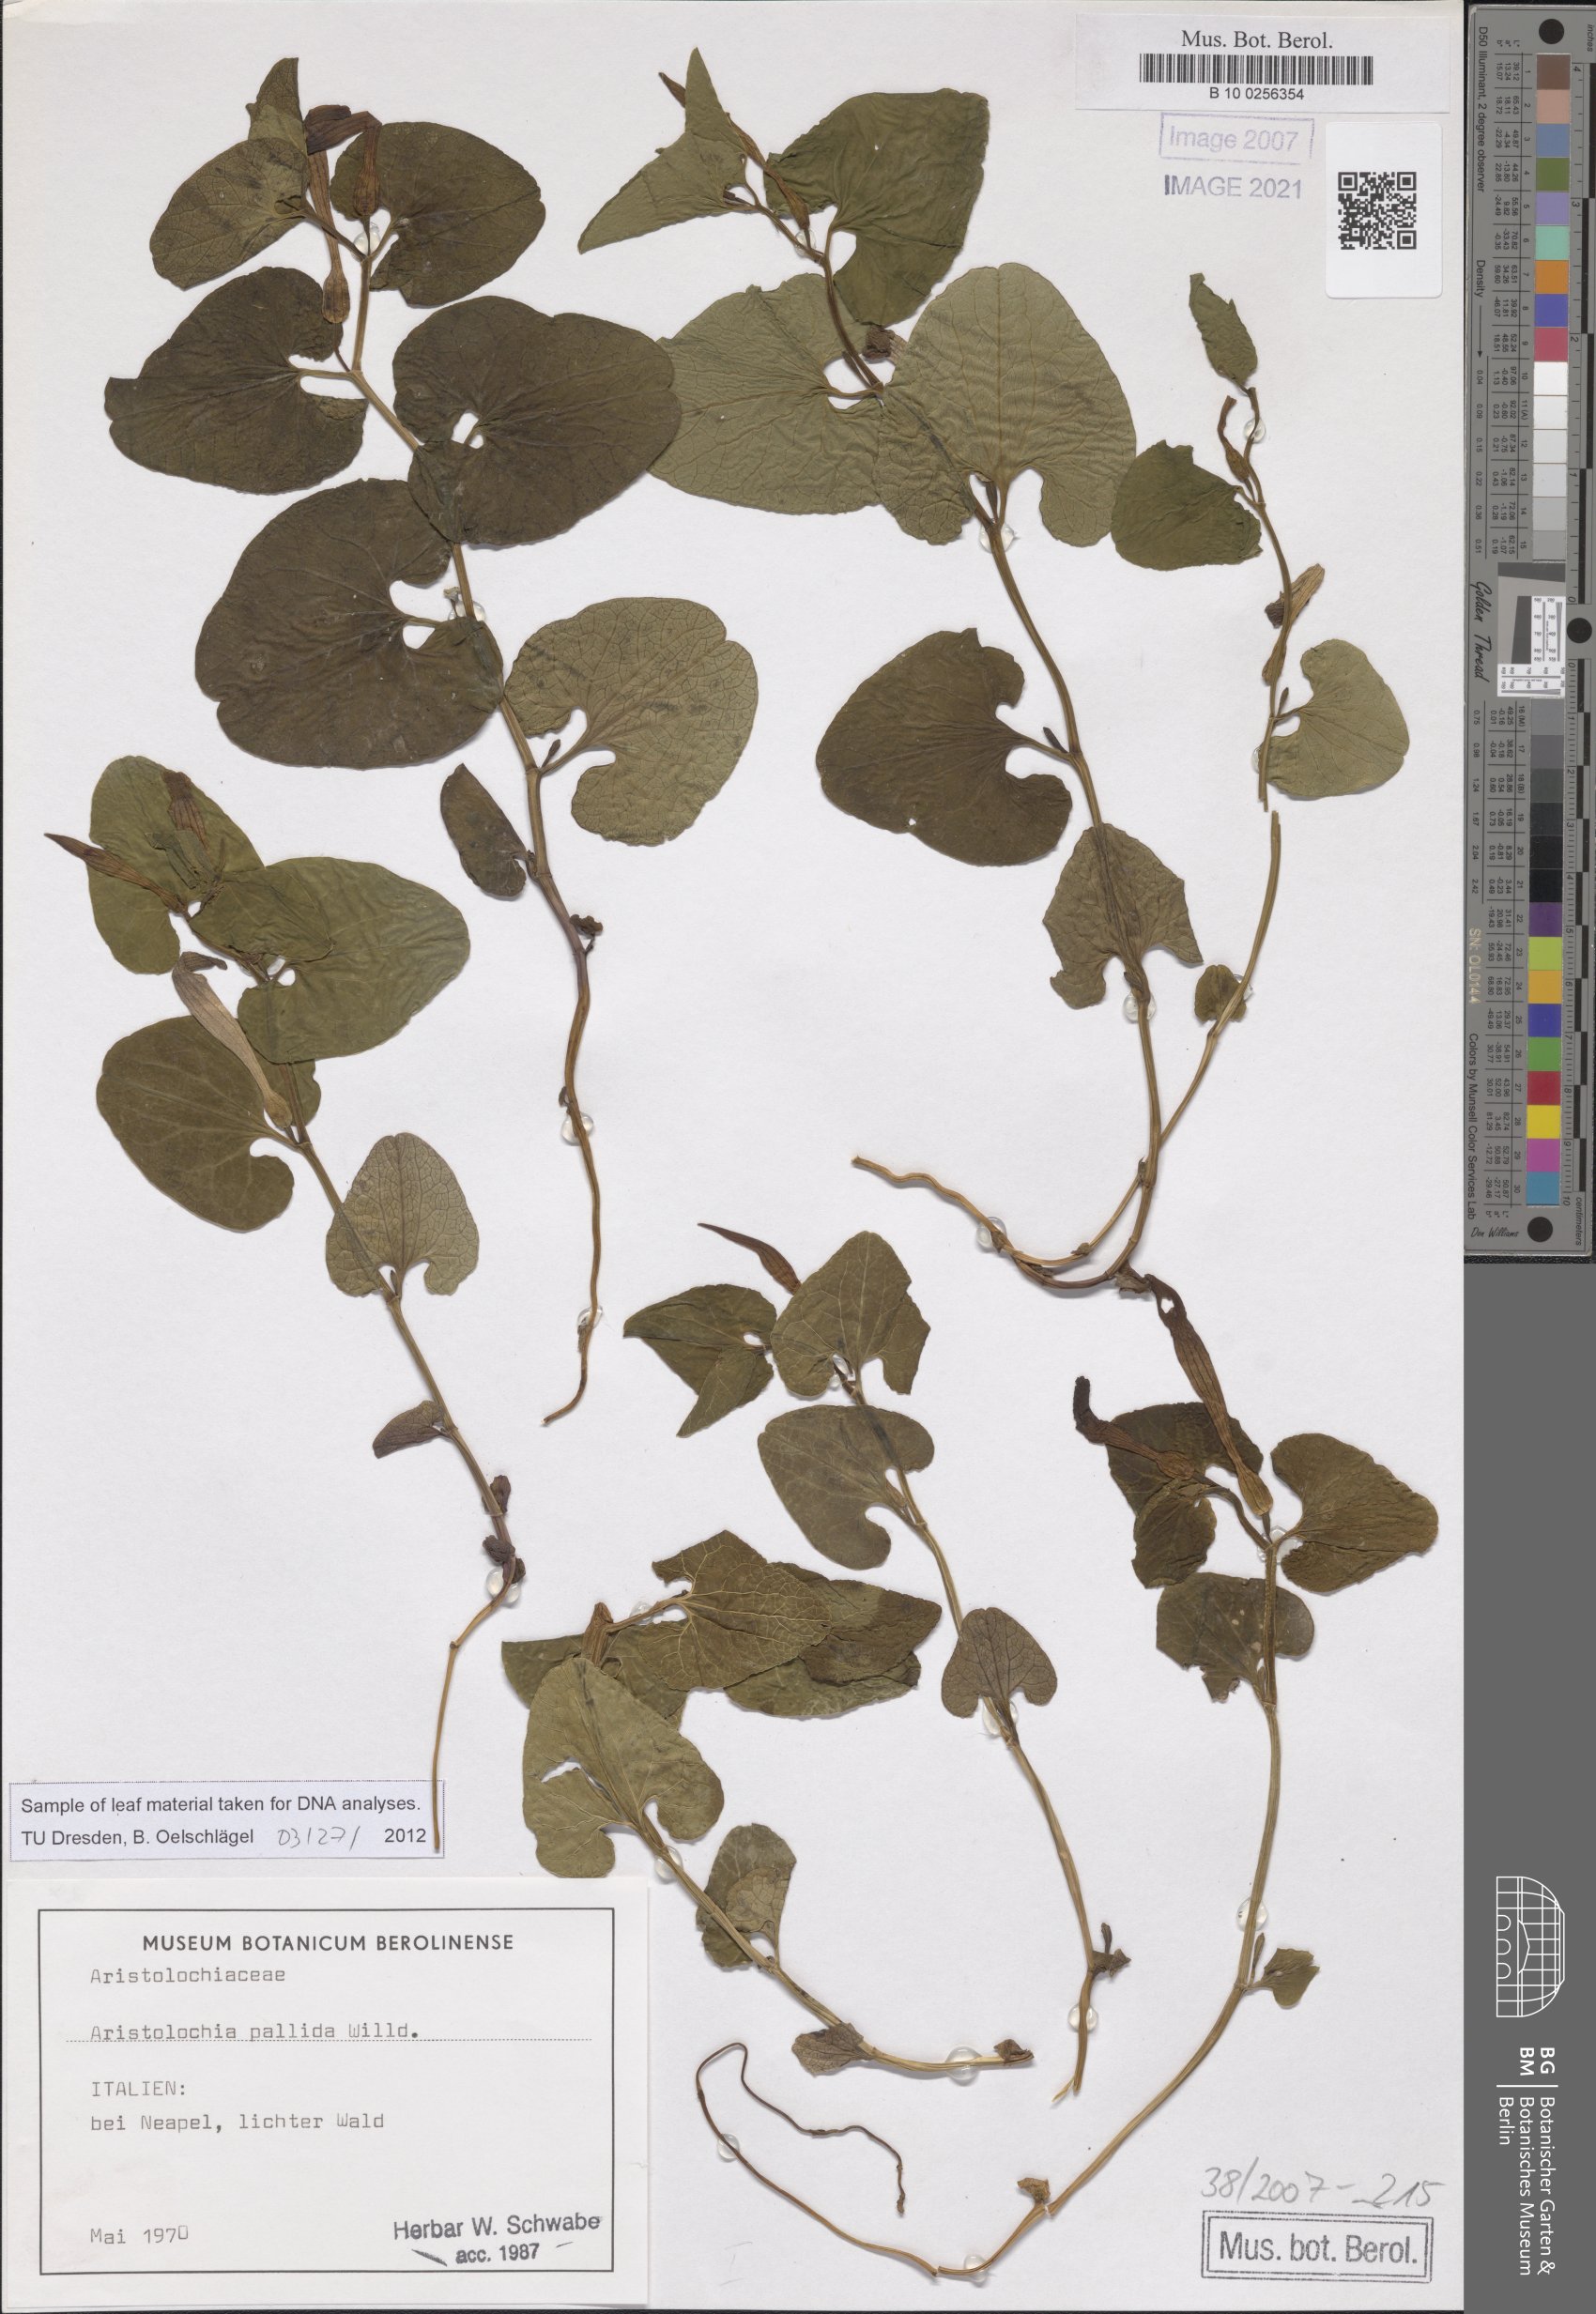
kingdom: Plantae
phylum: Tracheophyta
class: Magnoliopsida
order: Piperales
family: Aristolochiaceae
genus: Aristolochia
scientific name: Aristolochia pallida
